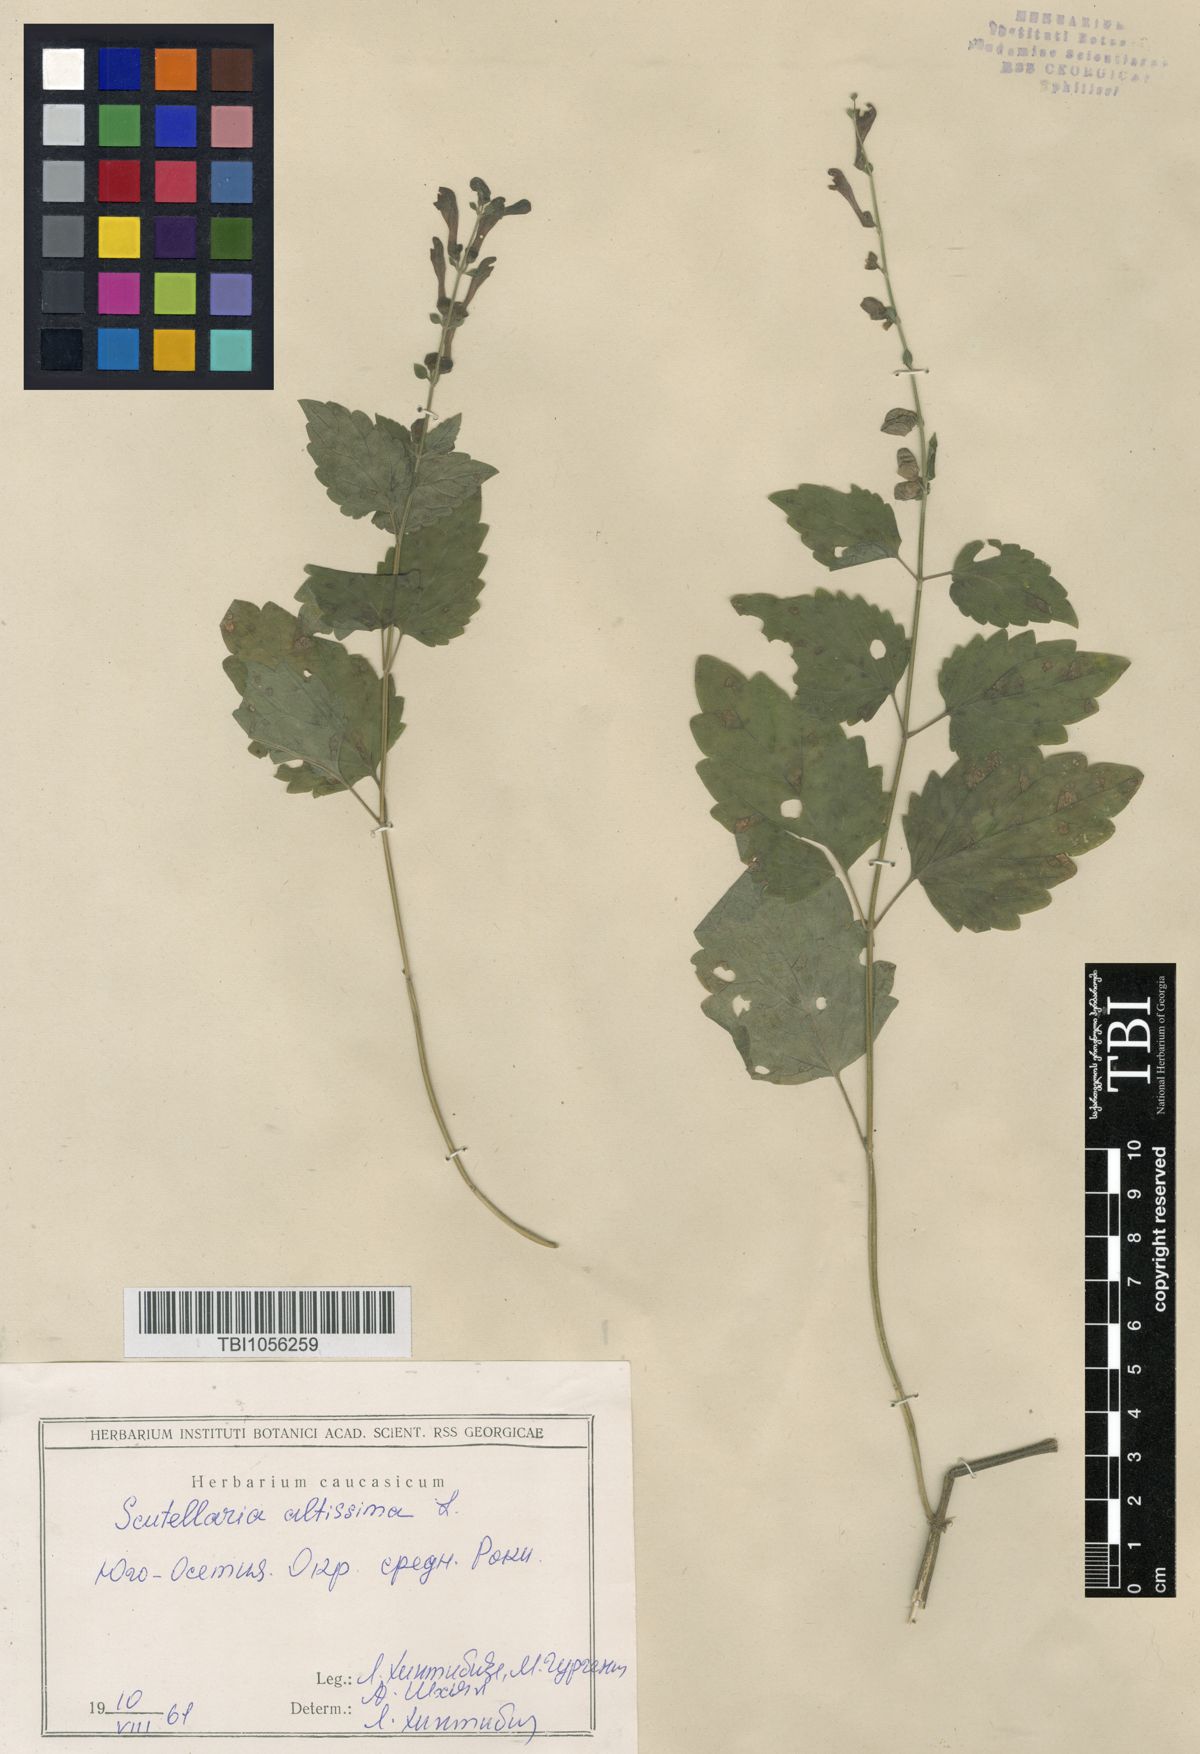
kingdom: Plantae
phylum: Tracheophyta
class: Magnoliopsida
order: Lamiales
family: Lamiaceae
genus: Scutellaria
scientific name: Scutellaria altissima
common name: Somerset skullcap
